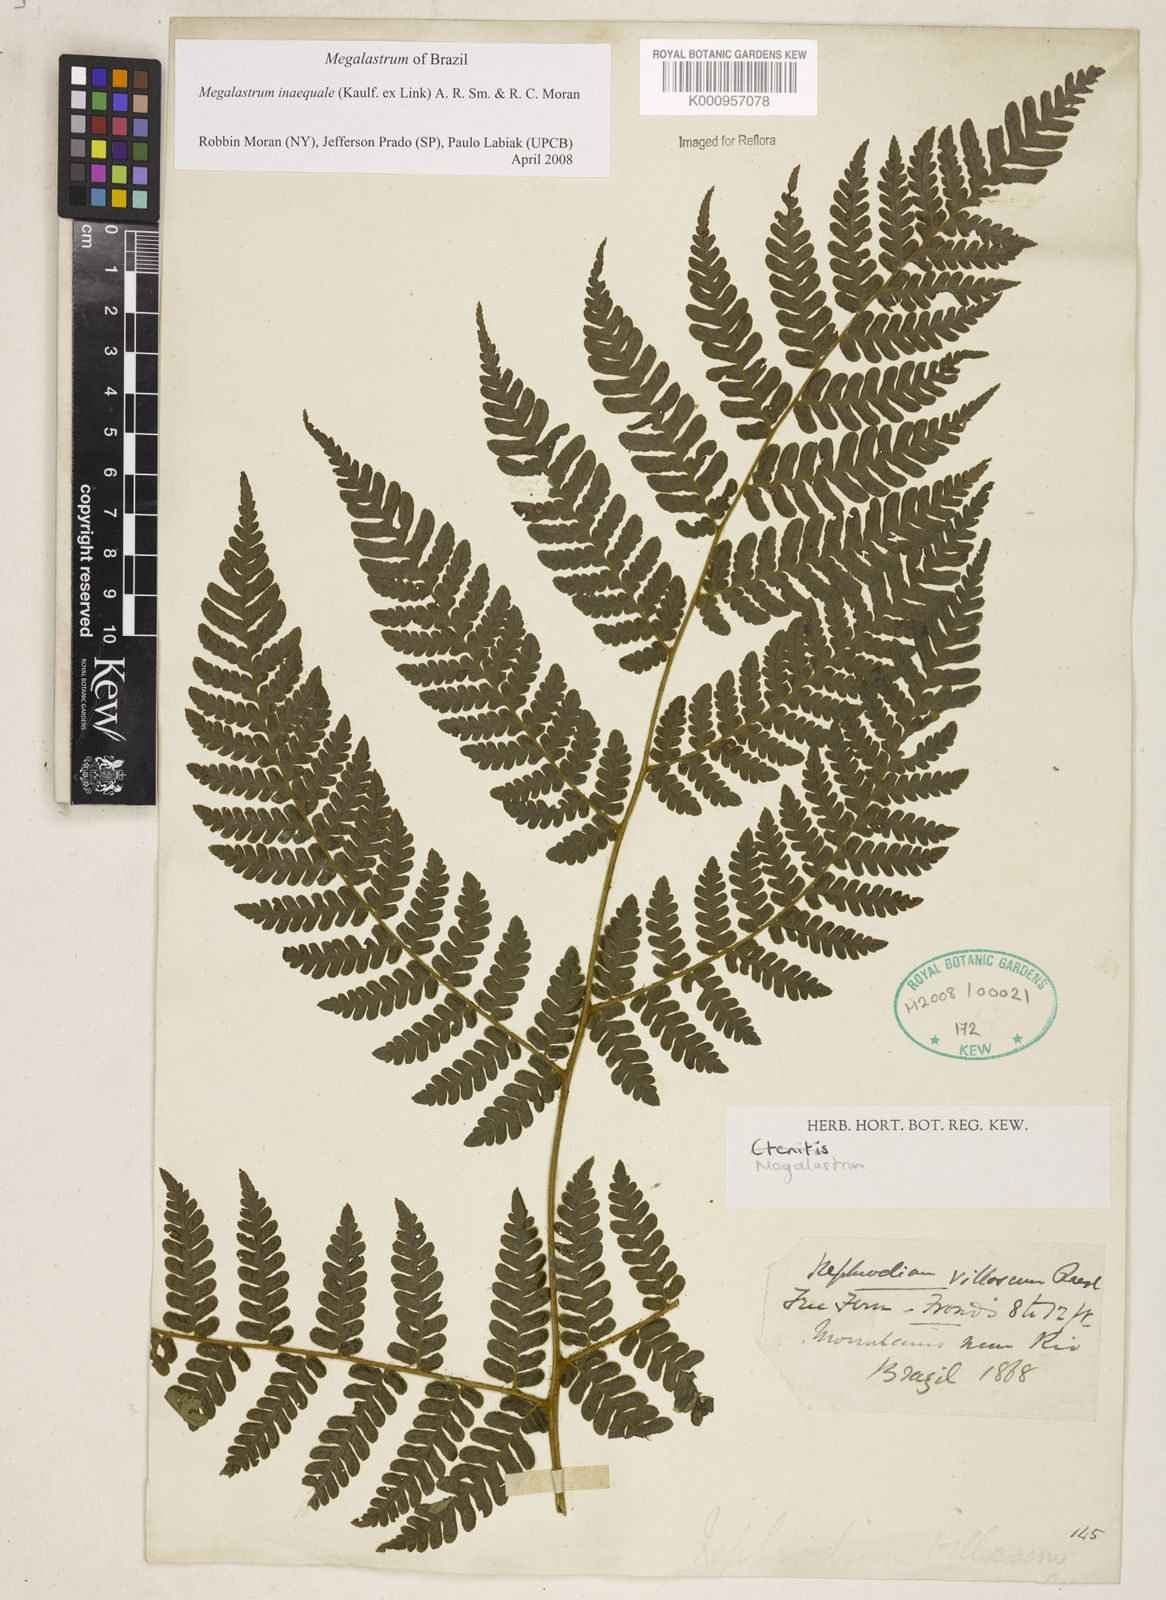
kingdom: Plantae
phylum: Tracheophyta
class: Polypodiopsida
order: Polypodiales
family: Dryopteridaceae
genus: Megalastrum
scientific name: Megalastrum inaequale
